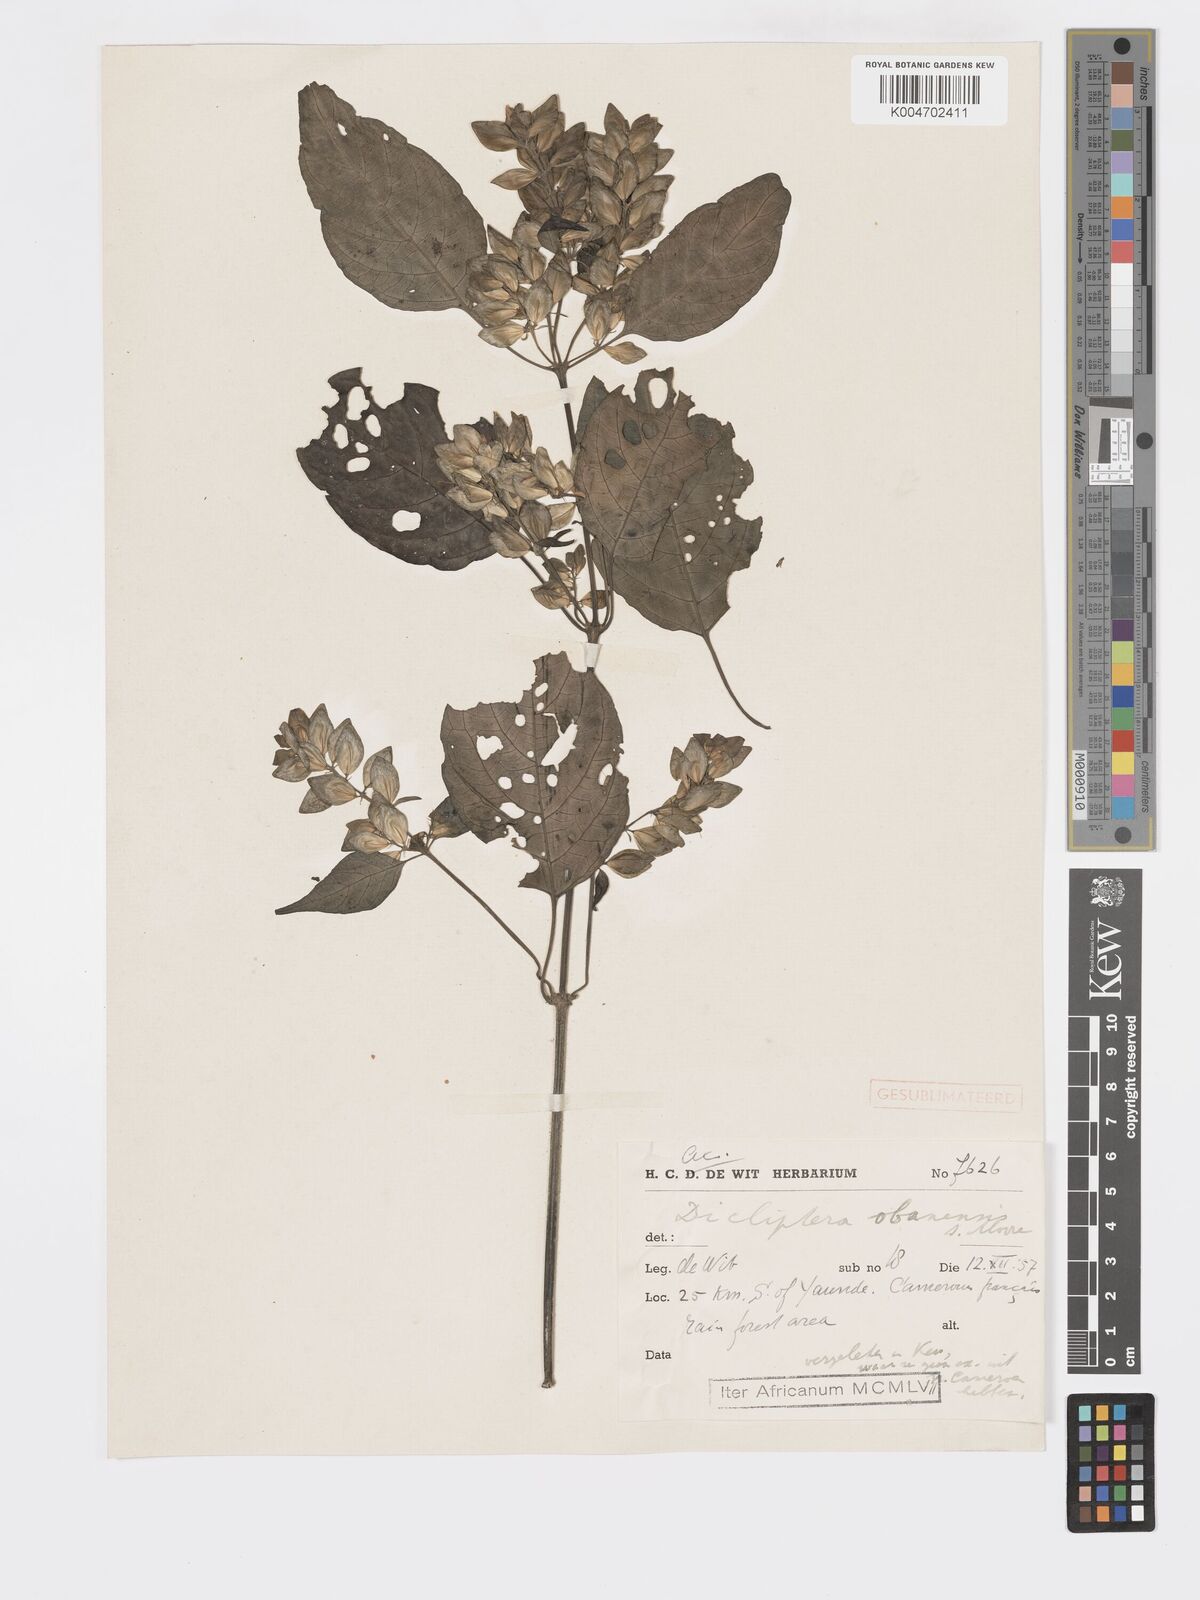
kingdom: Plantae
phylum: Tracheophyta
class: Magnoliopsida
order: Lamiales
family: Acanthaceae
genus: Dicliptera
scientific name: Dicliptera elliotii
